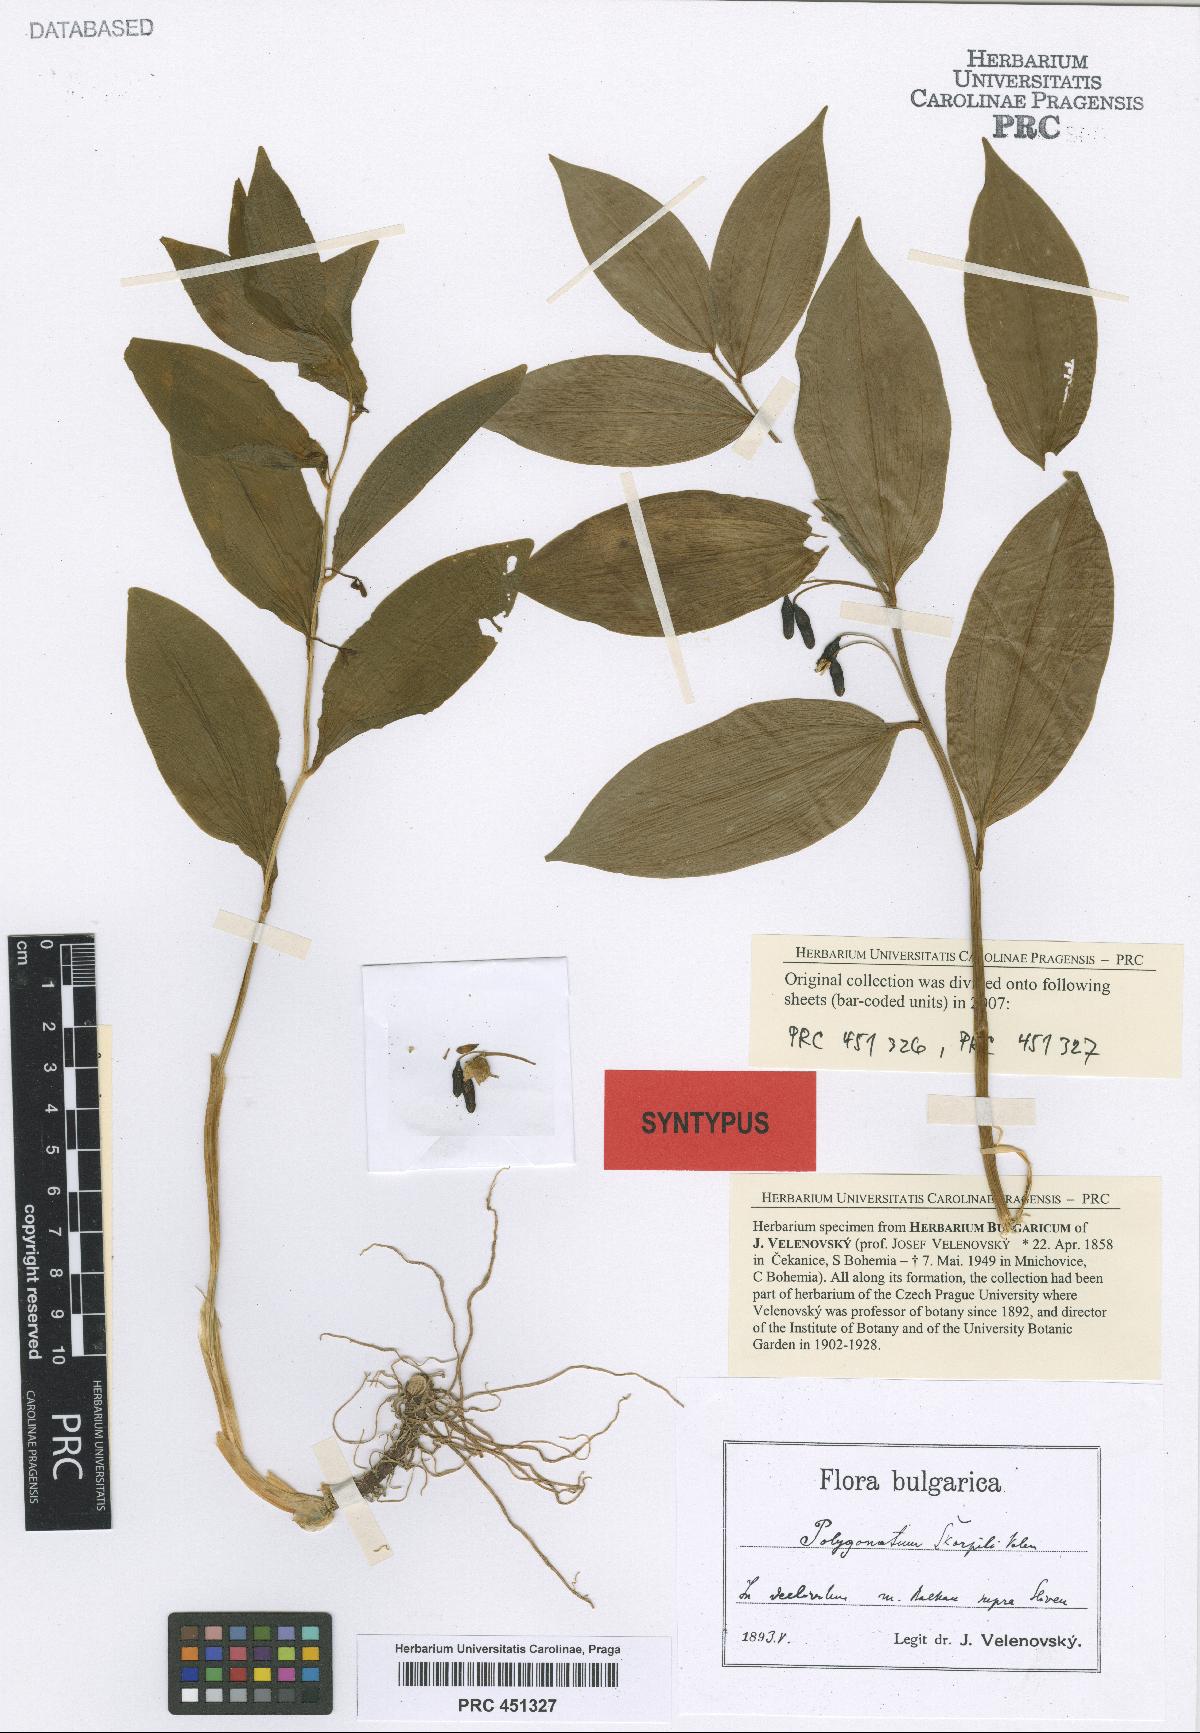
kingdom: Plantae
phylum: Tracheophyta
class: Liliopsida
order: Asparagales
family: Asparagaceae
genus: Polygonatum
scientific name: Polygonatum latifolium
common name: Broadleaf solomon's seal
